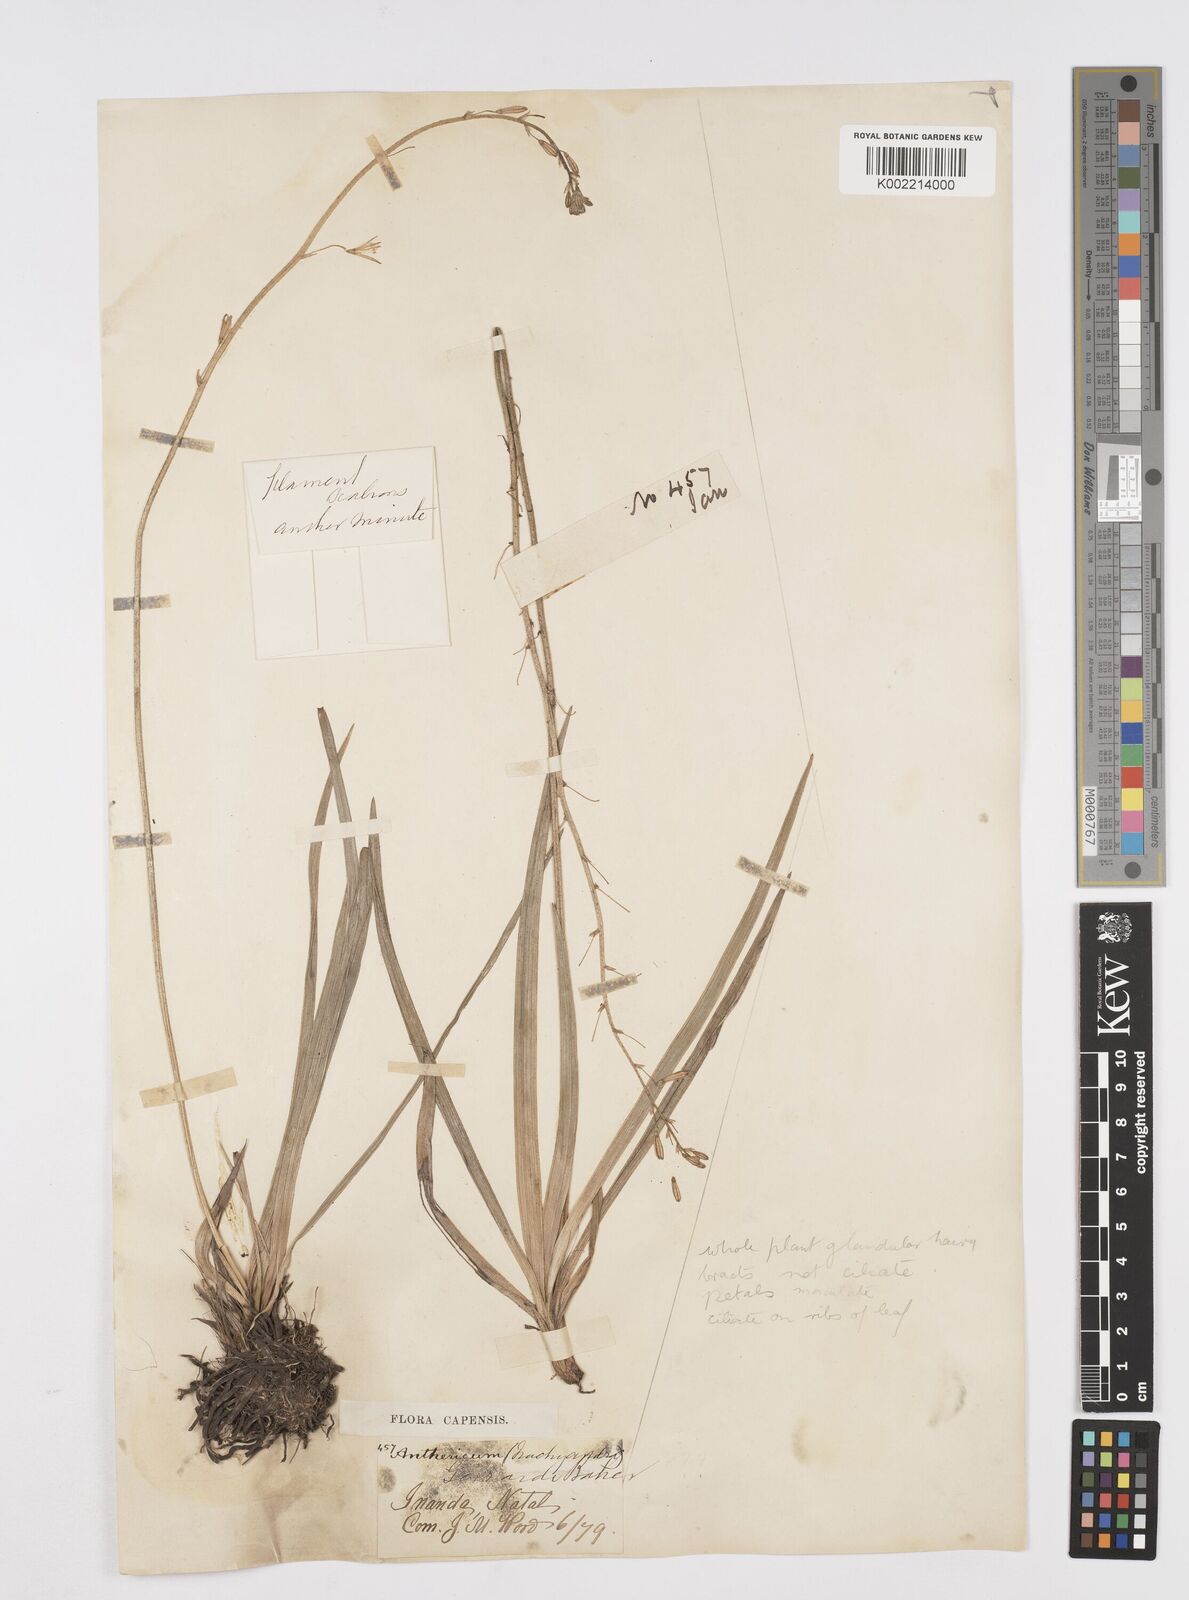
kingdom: Plantae
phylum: Tracheophyta
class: Liliopsida
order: Asparagales
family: Asphodelaceae
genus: Trachyandra
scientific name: Trachyandra asperata
